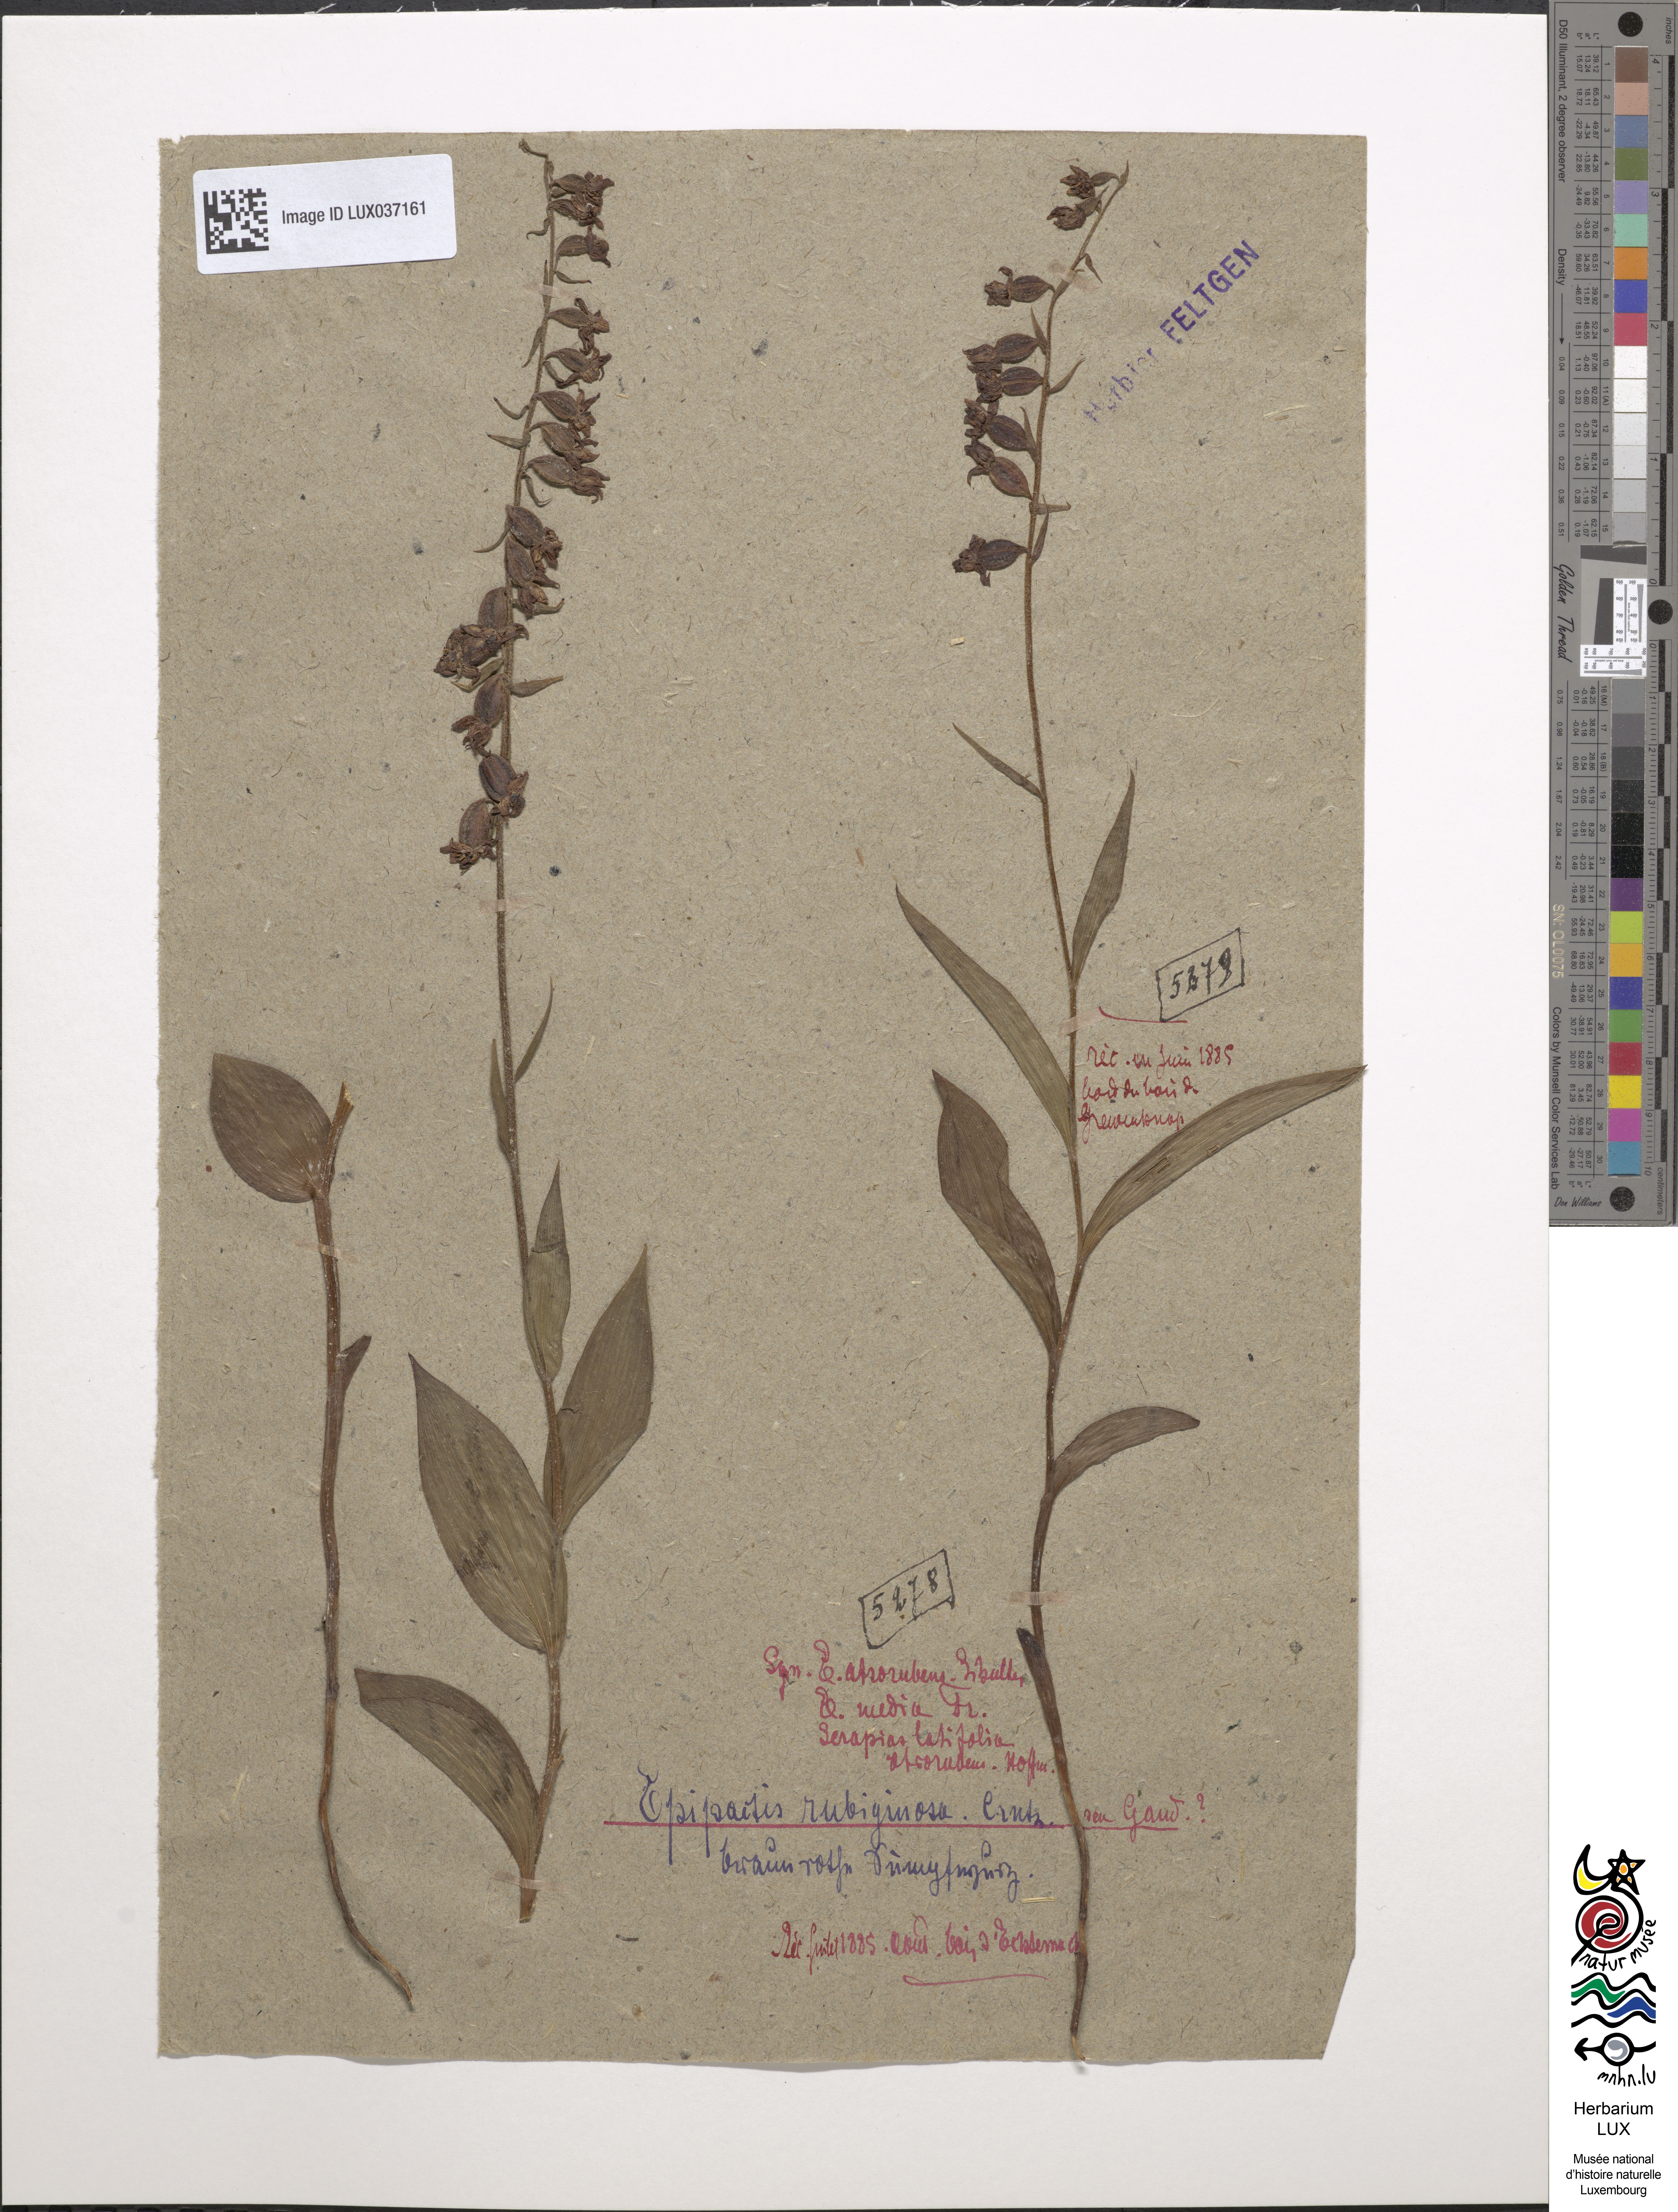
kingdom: Plantae
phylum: Tracheophyta
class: Liliopsida
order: Asparagales
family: Orchidaceae
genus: Epipactis
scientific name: Epipactis atrorubens
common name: Dark-red helleborine
